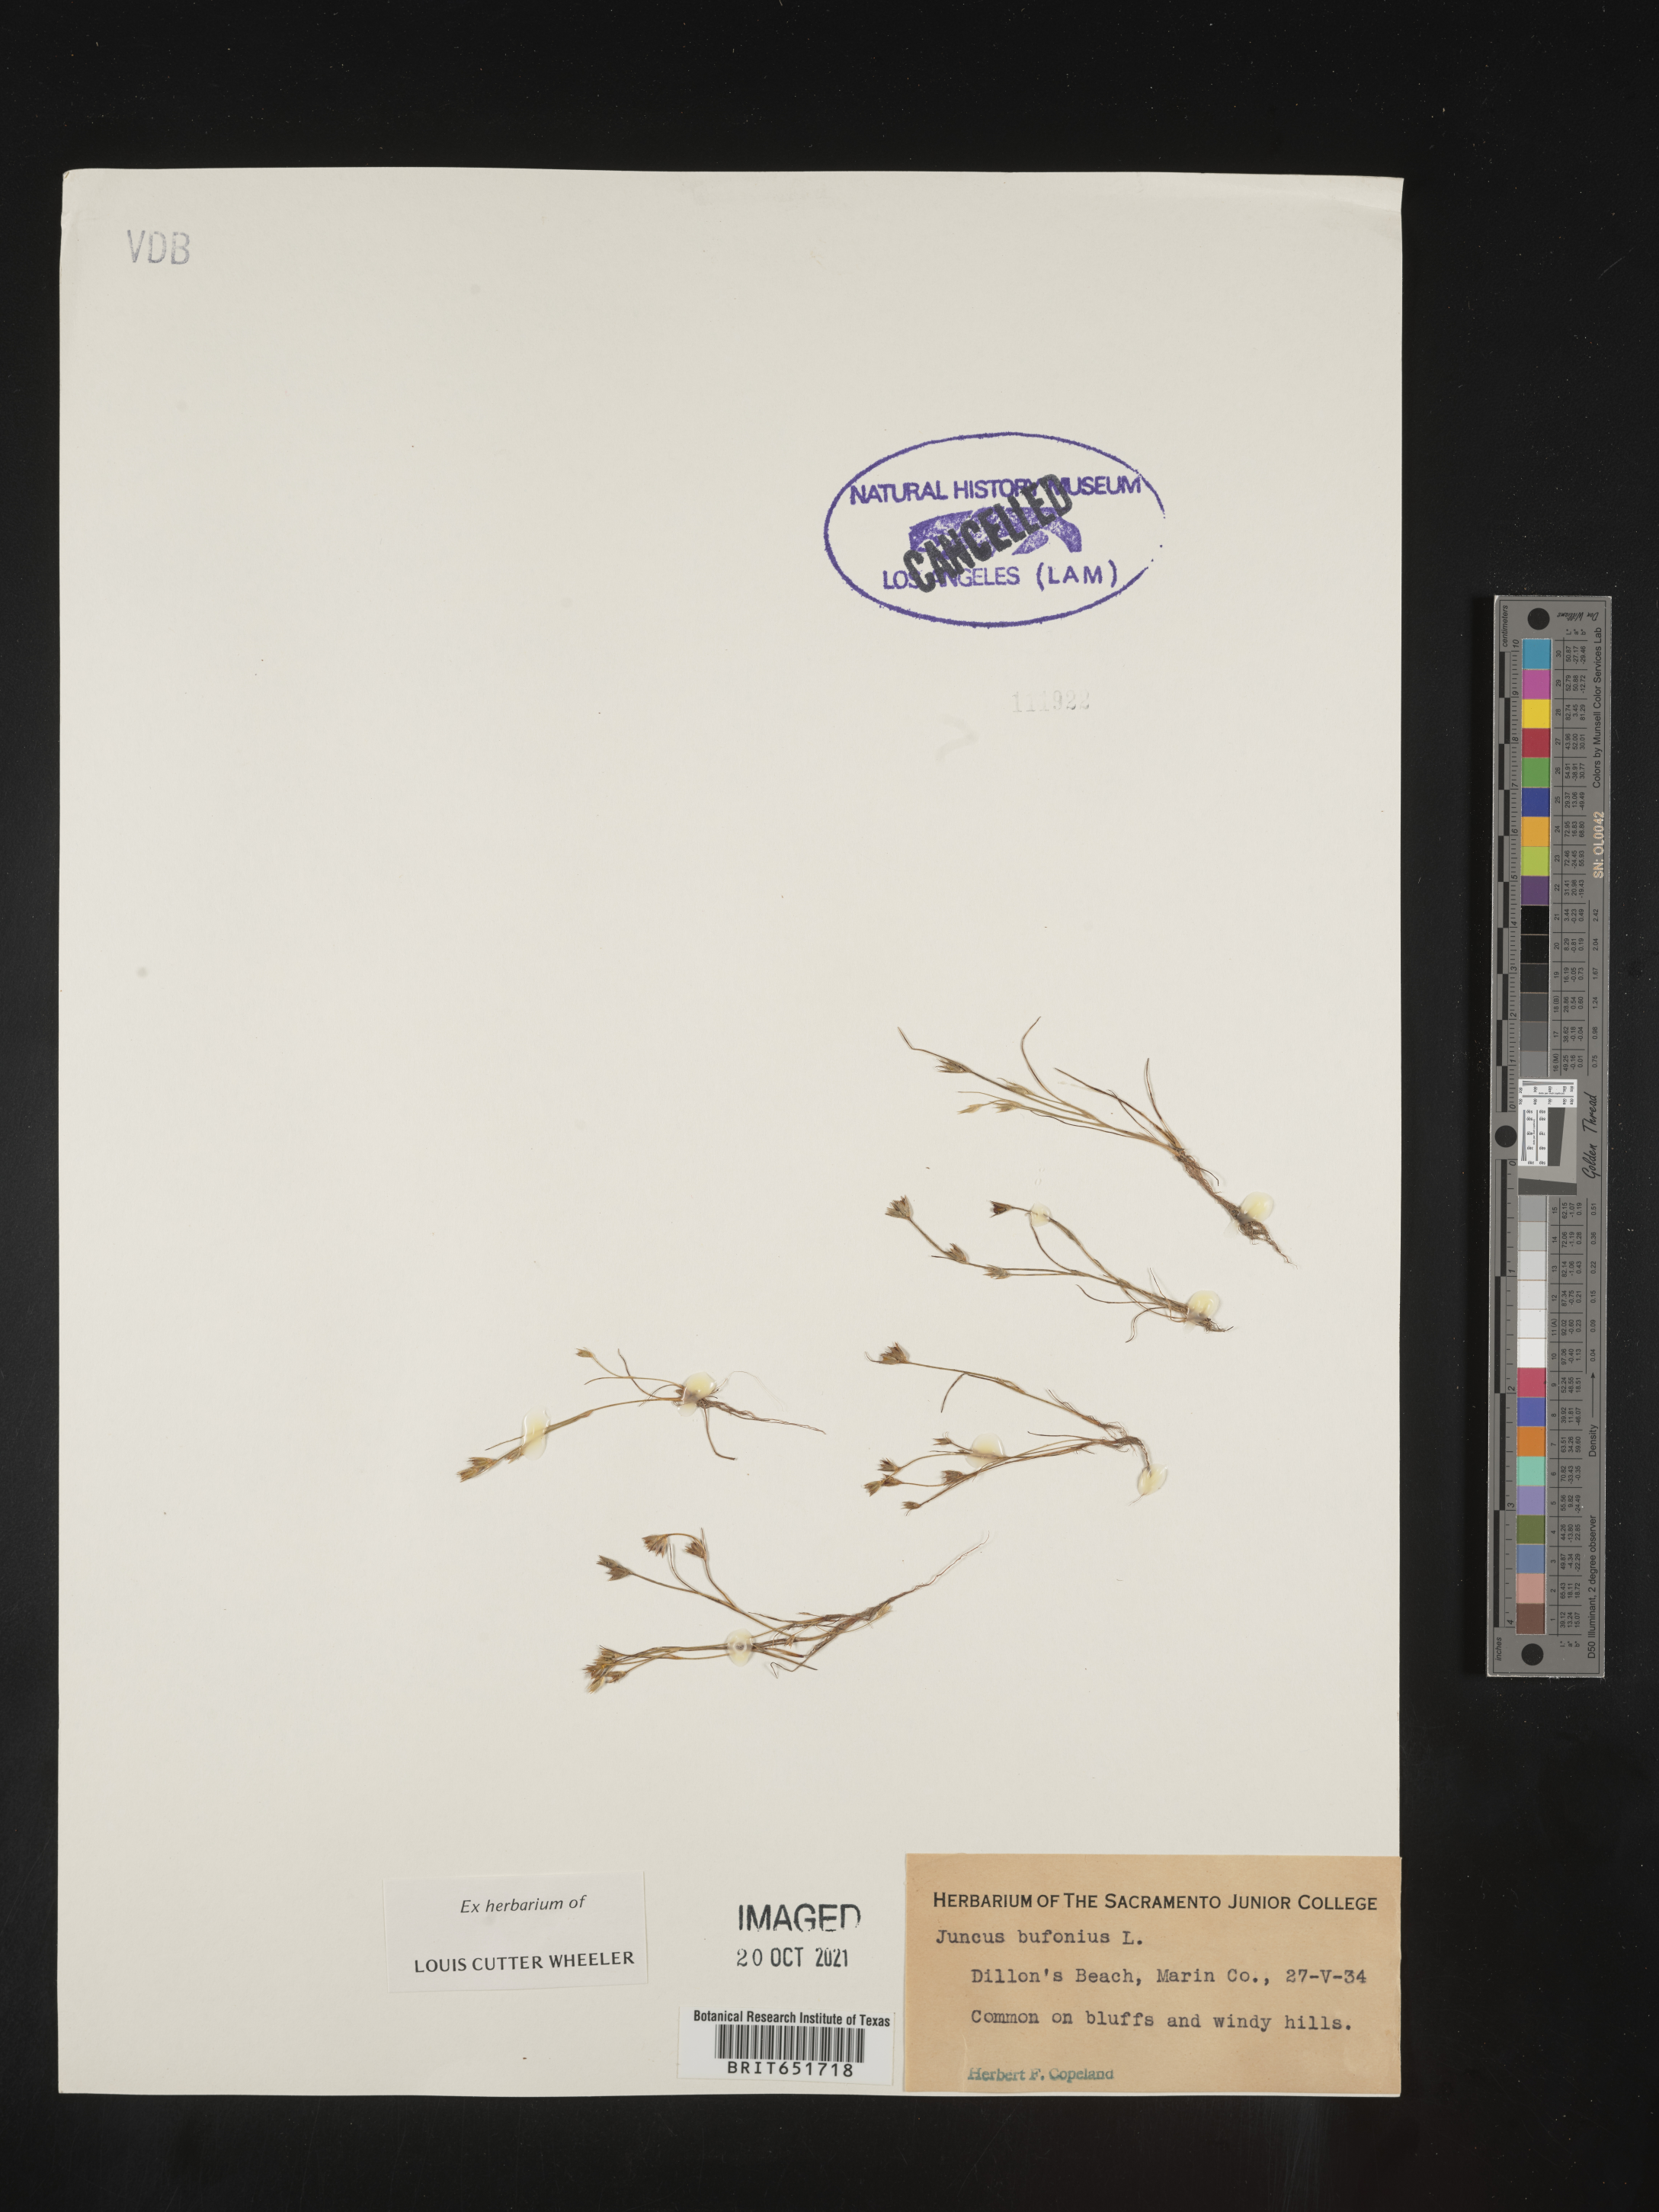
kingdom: Plantae
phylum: Tracheophyta
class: Liliopsida
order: Poales
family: Juncaceae
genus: Juncus
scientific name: Juncus bufonius
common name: Toad rush
